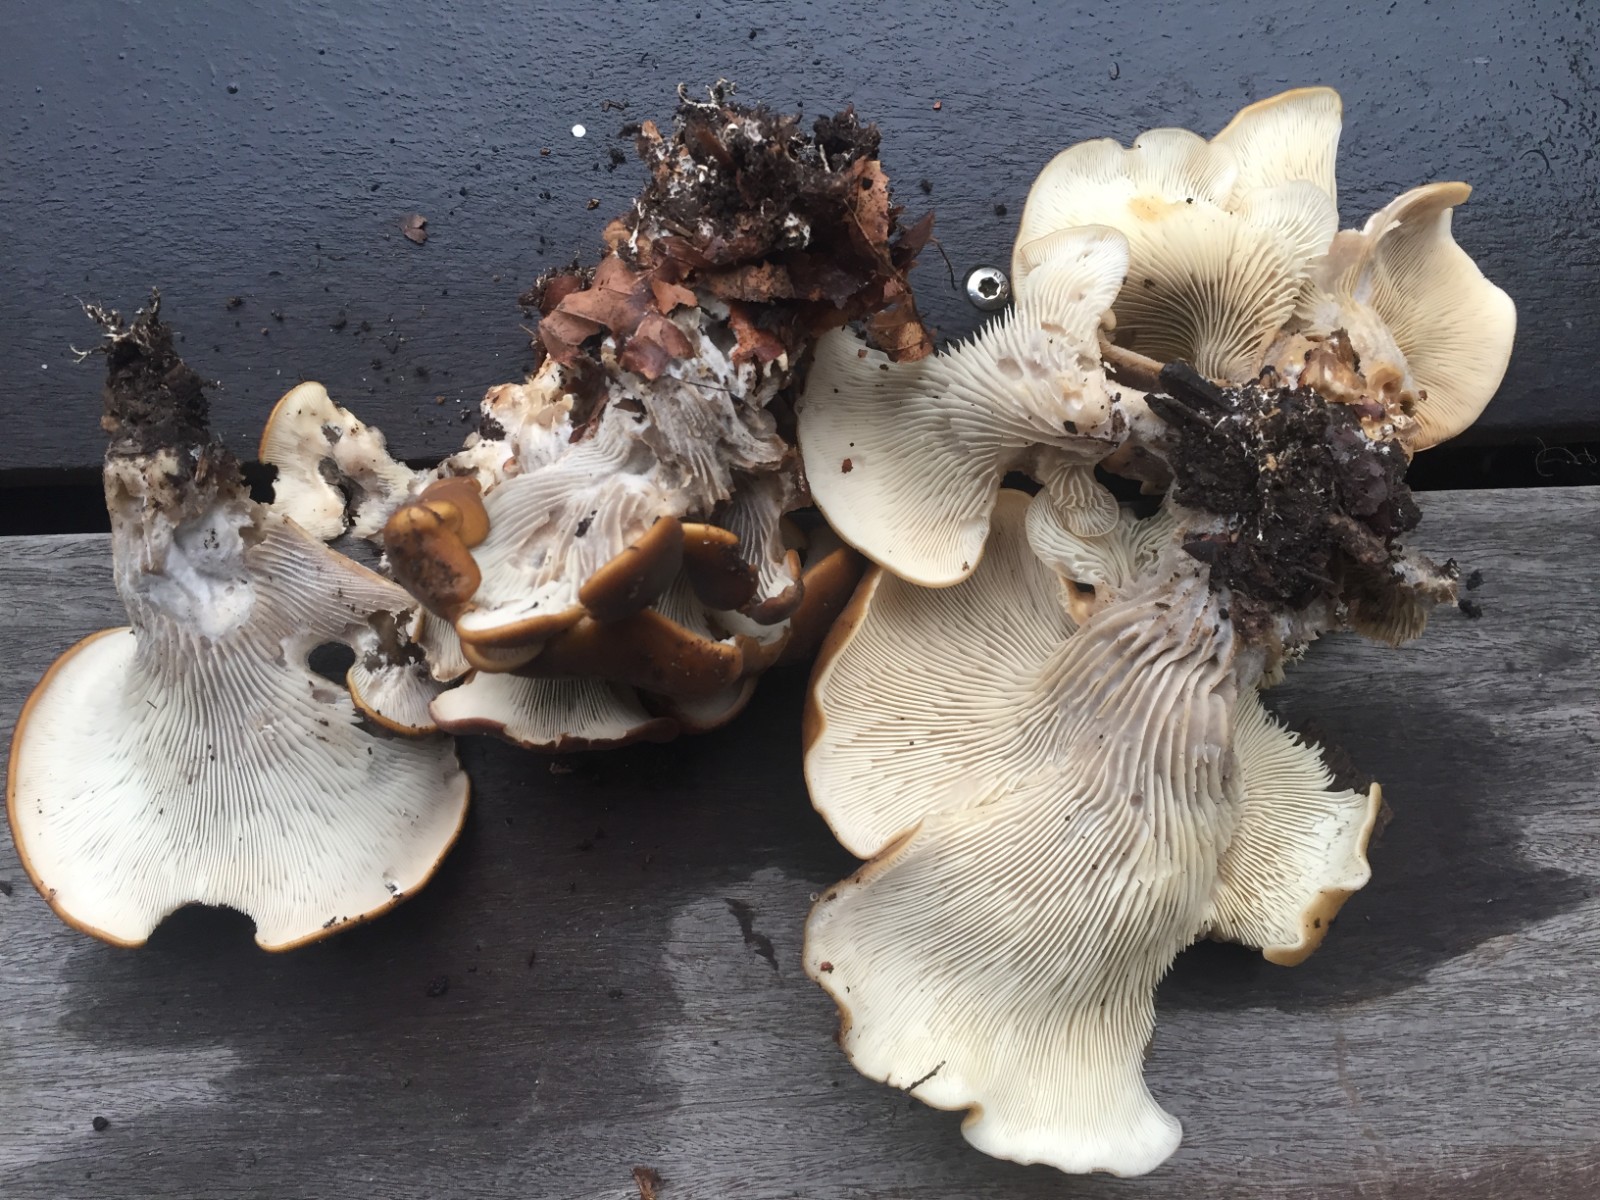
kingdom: Fungi
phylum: Basidiomycota
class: Agaricomycetes
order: Agaricales
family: Pleurotaceae
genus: Hohenbuehelia
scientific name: Hohenbuehelia petaloides
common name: stor filthat
